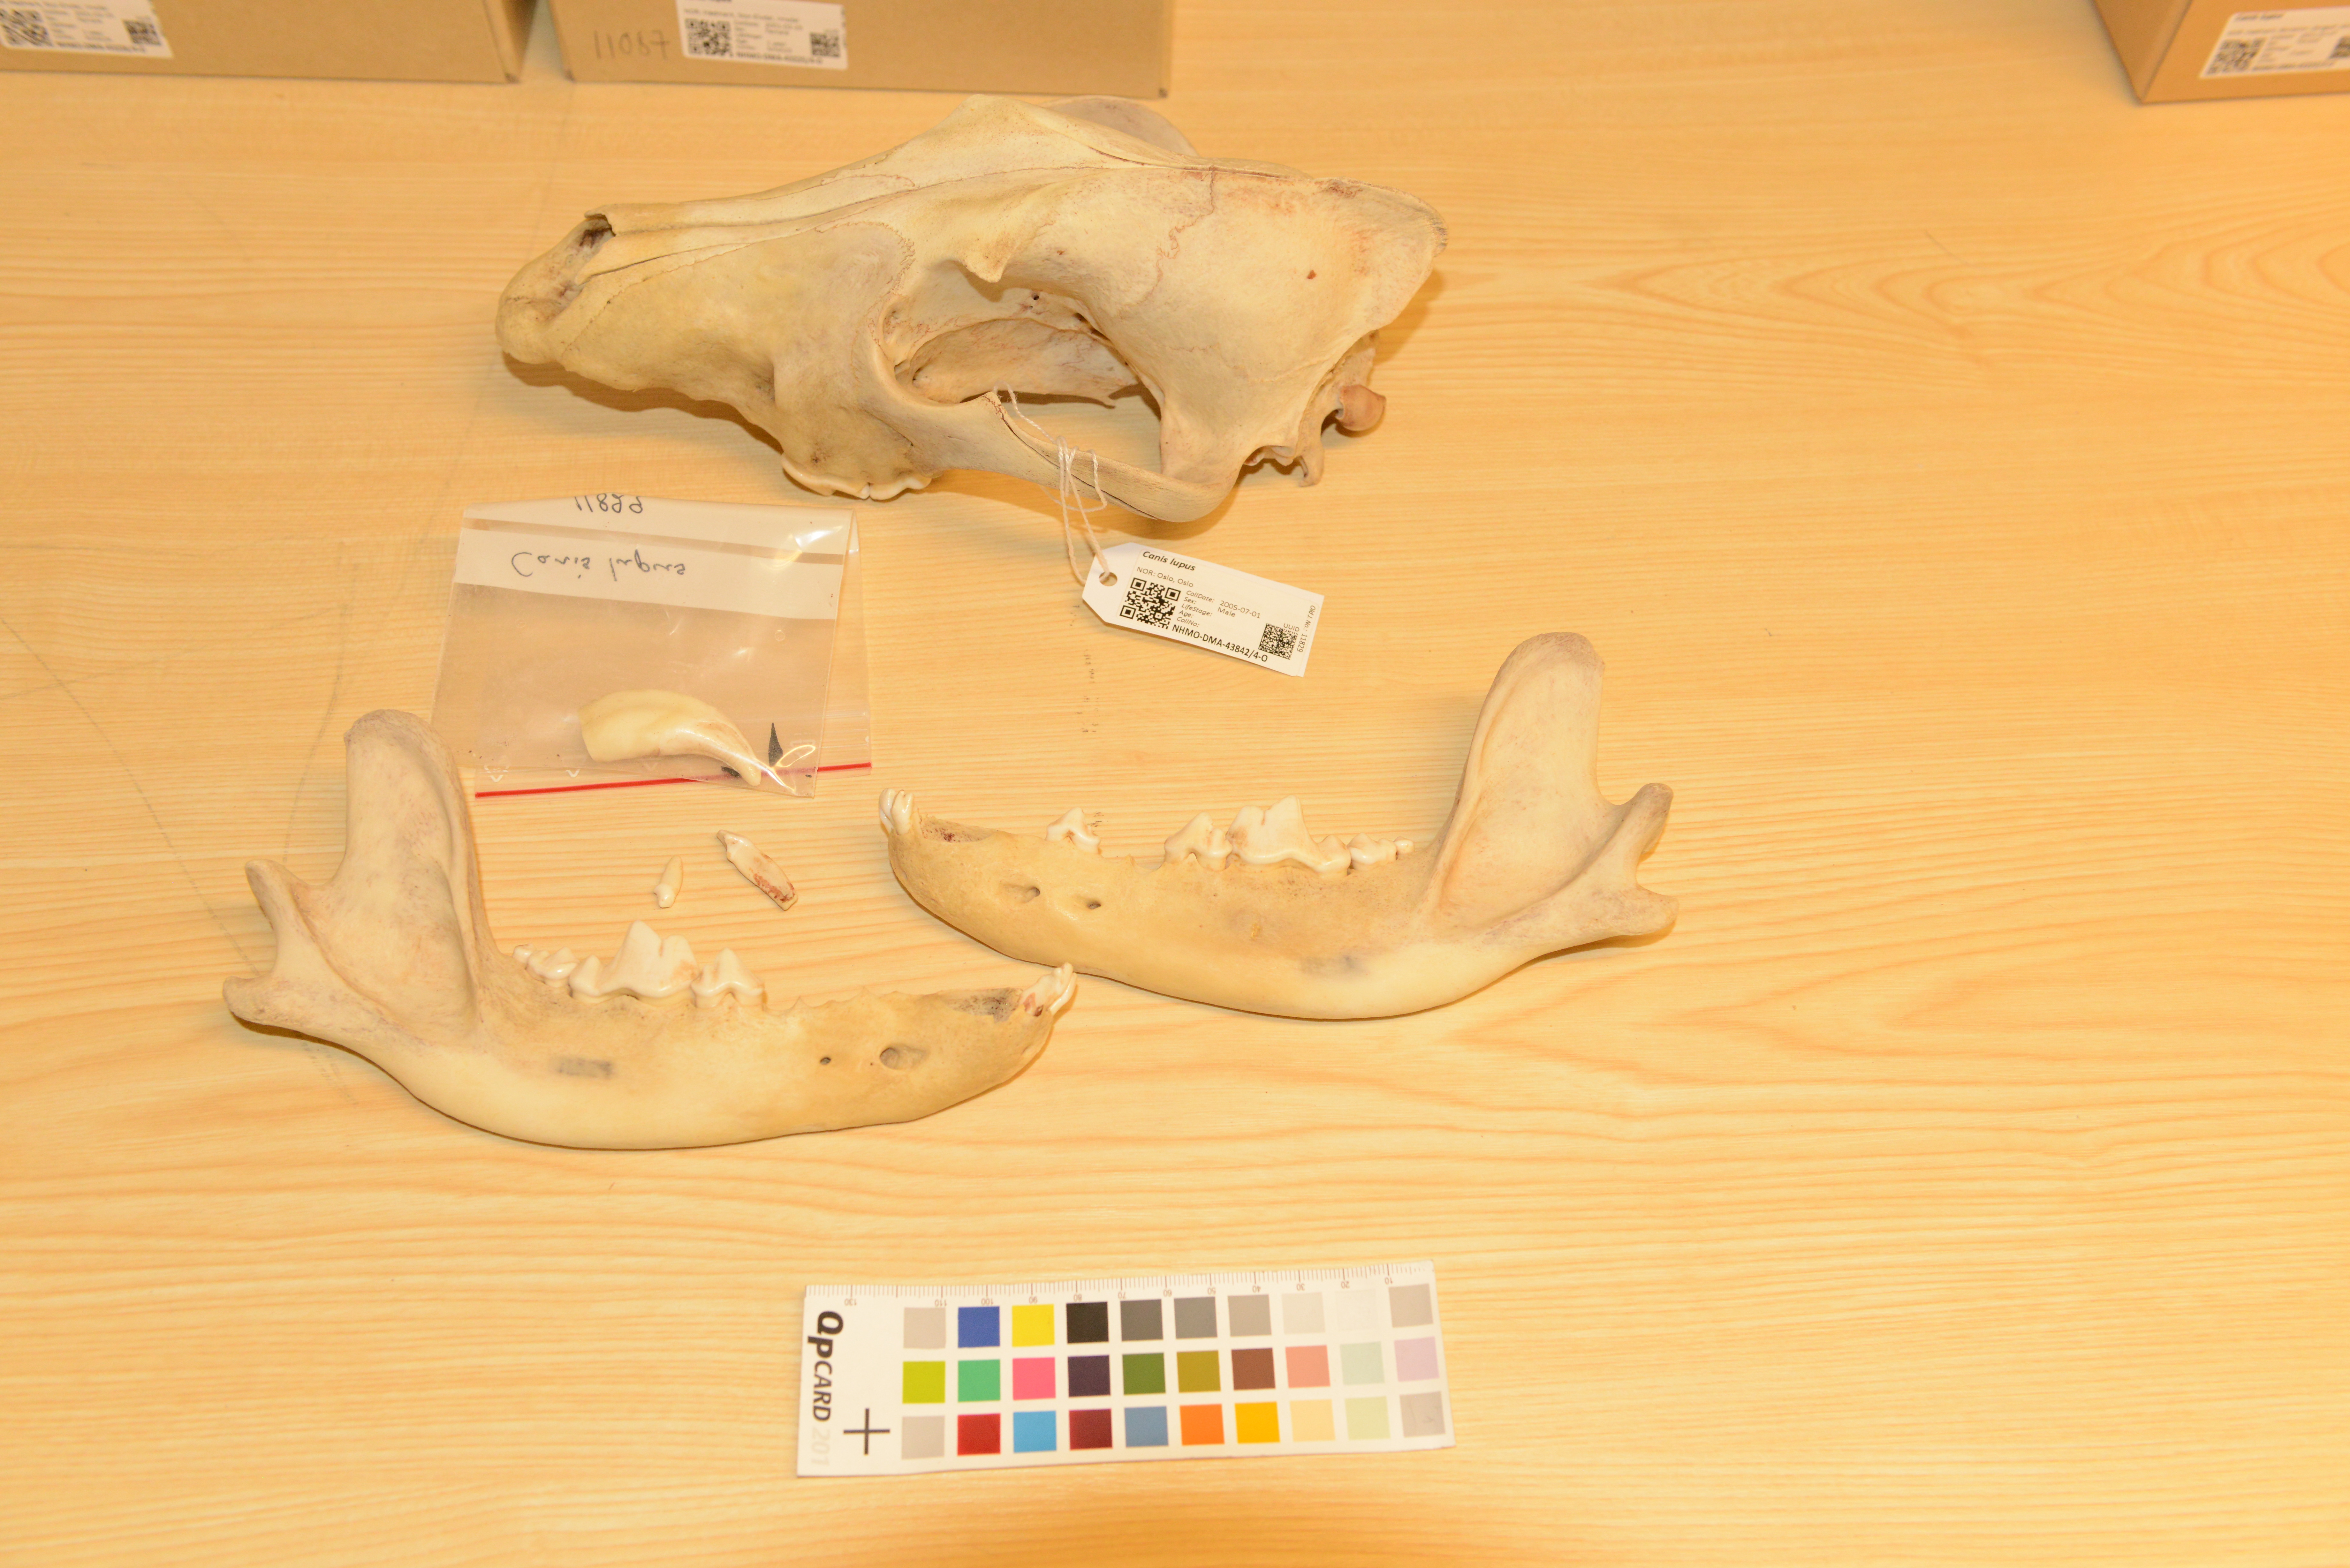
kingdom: Animalia
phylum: Chordata
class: Mammalia
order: Carnivora
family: Canidae
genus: Canis
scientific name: Canis lupus
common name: Gray wolf
